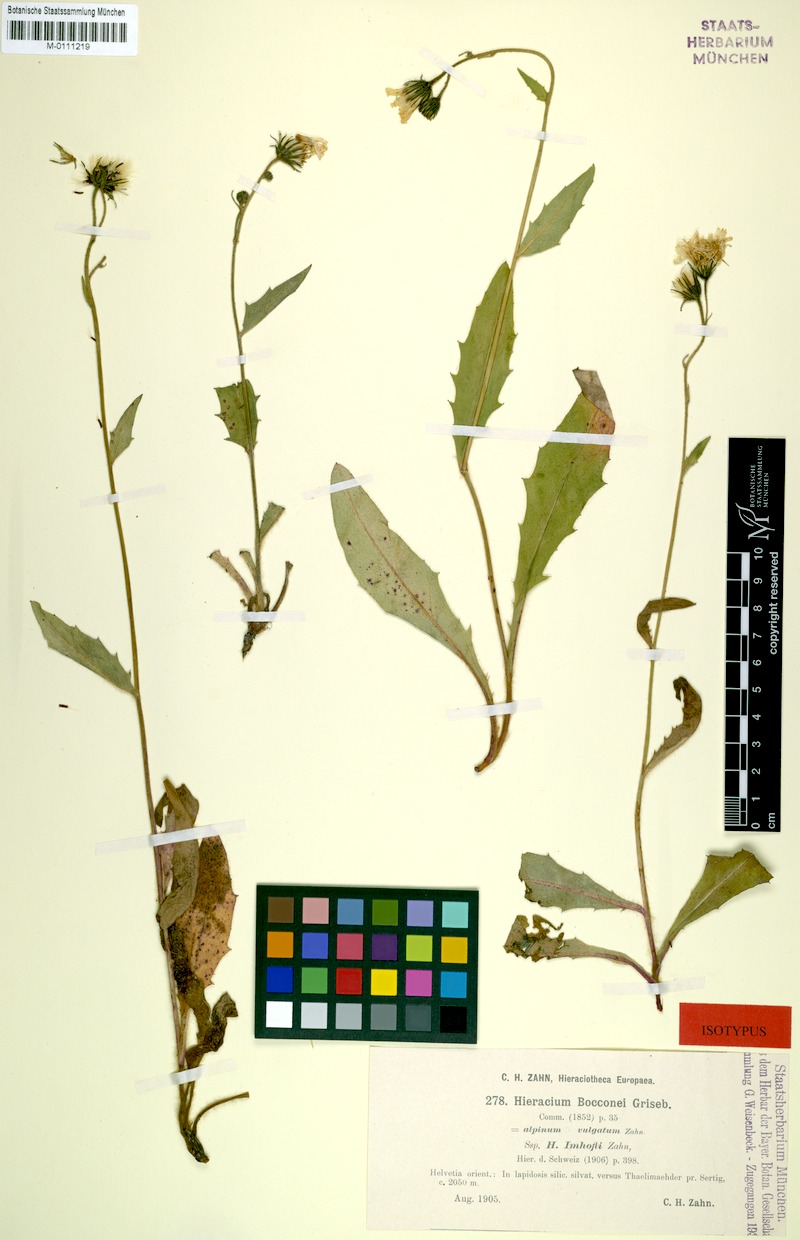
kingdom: Plantae
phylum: Tracheophyta
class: Magnoliopsida
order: Asterales
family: Asteraceae
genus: Hieracium
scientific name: Hieracium bocconei
